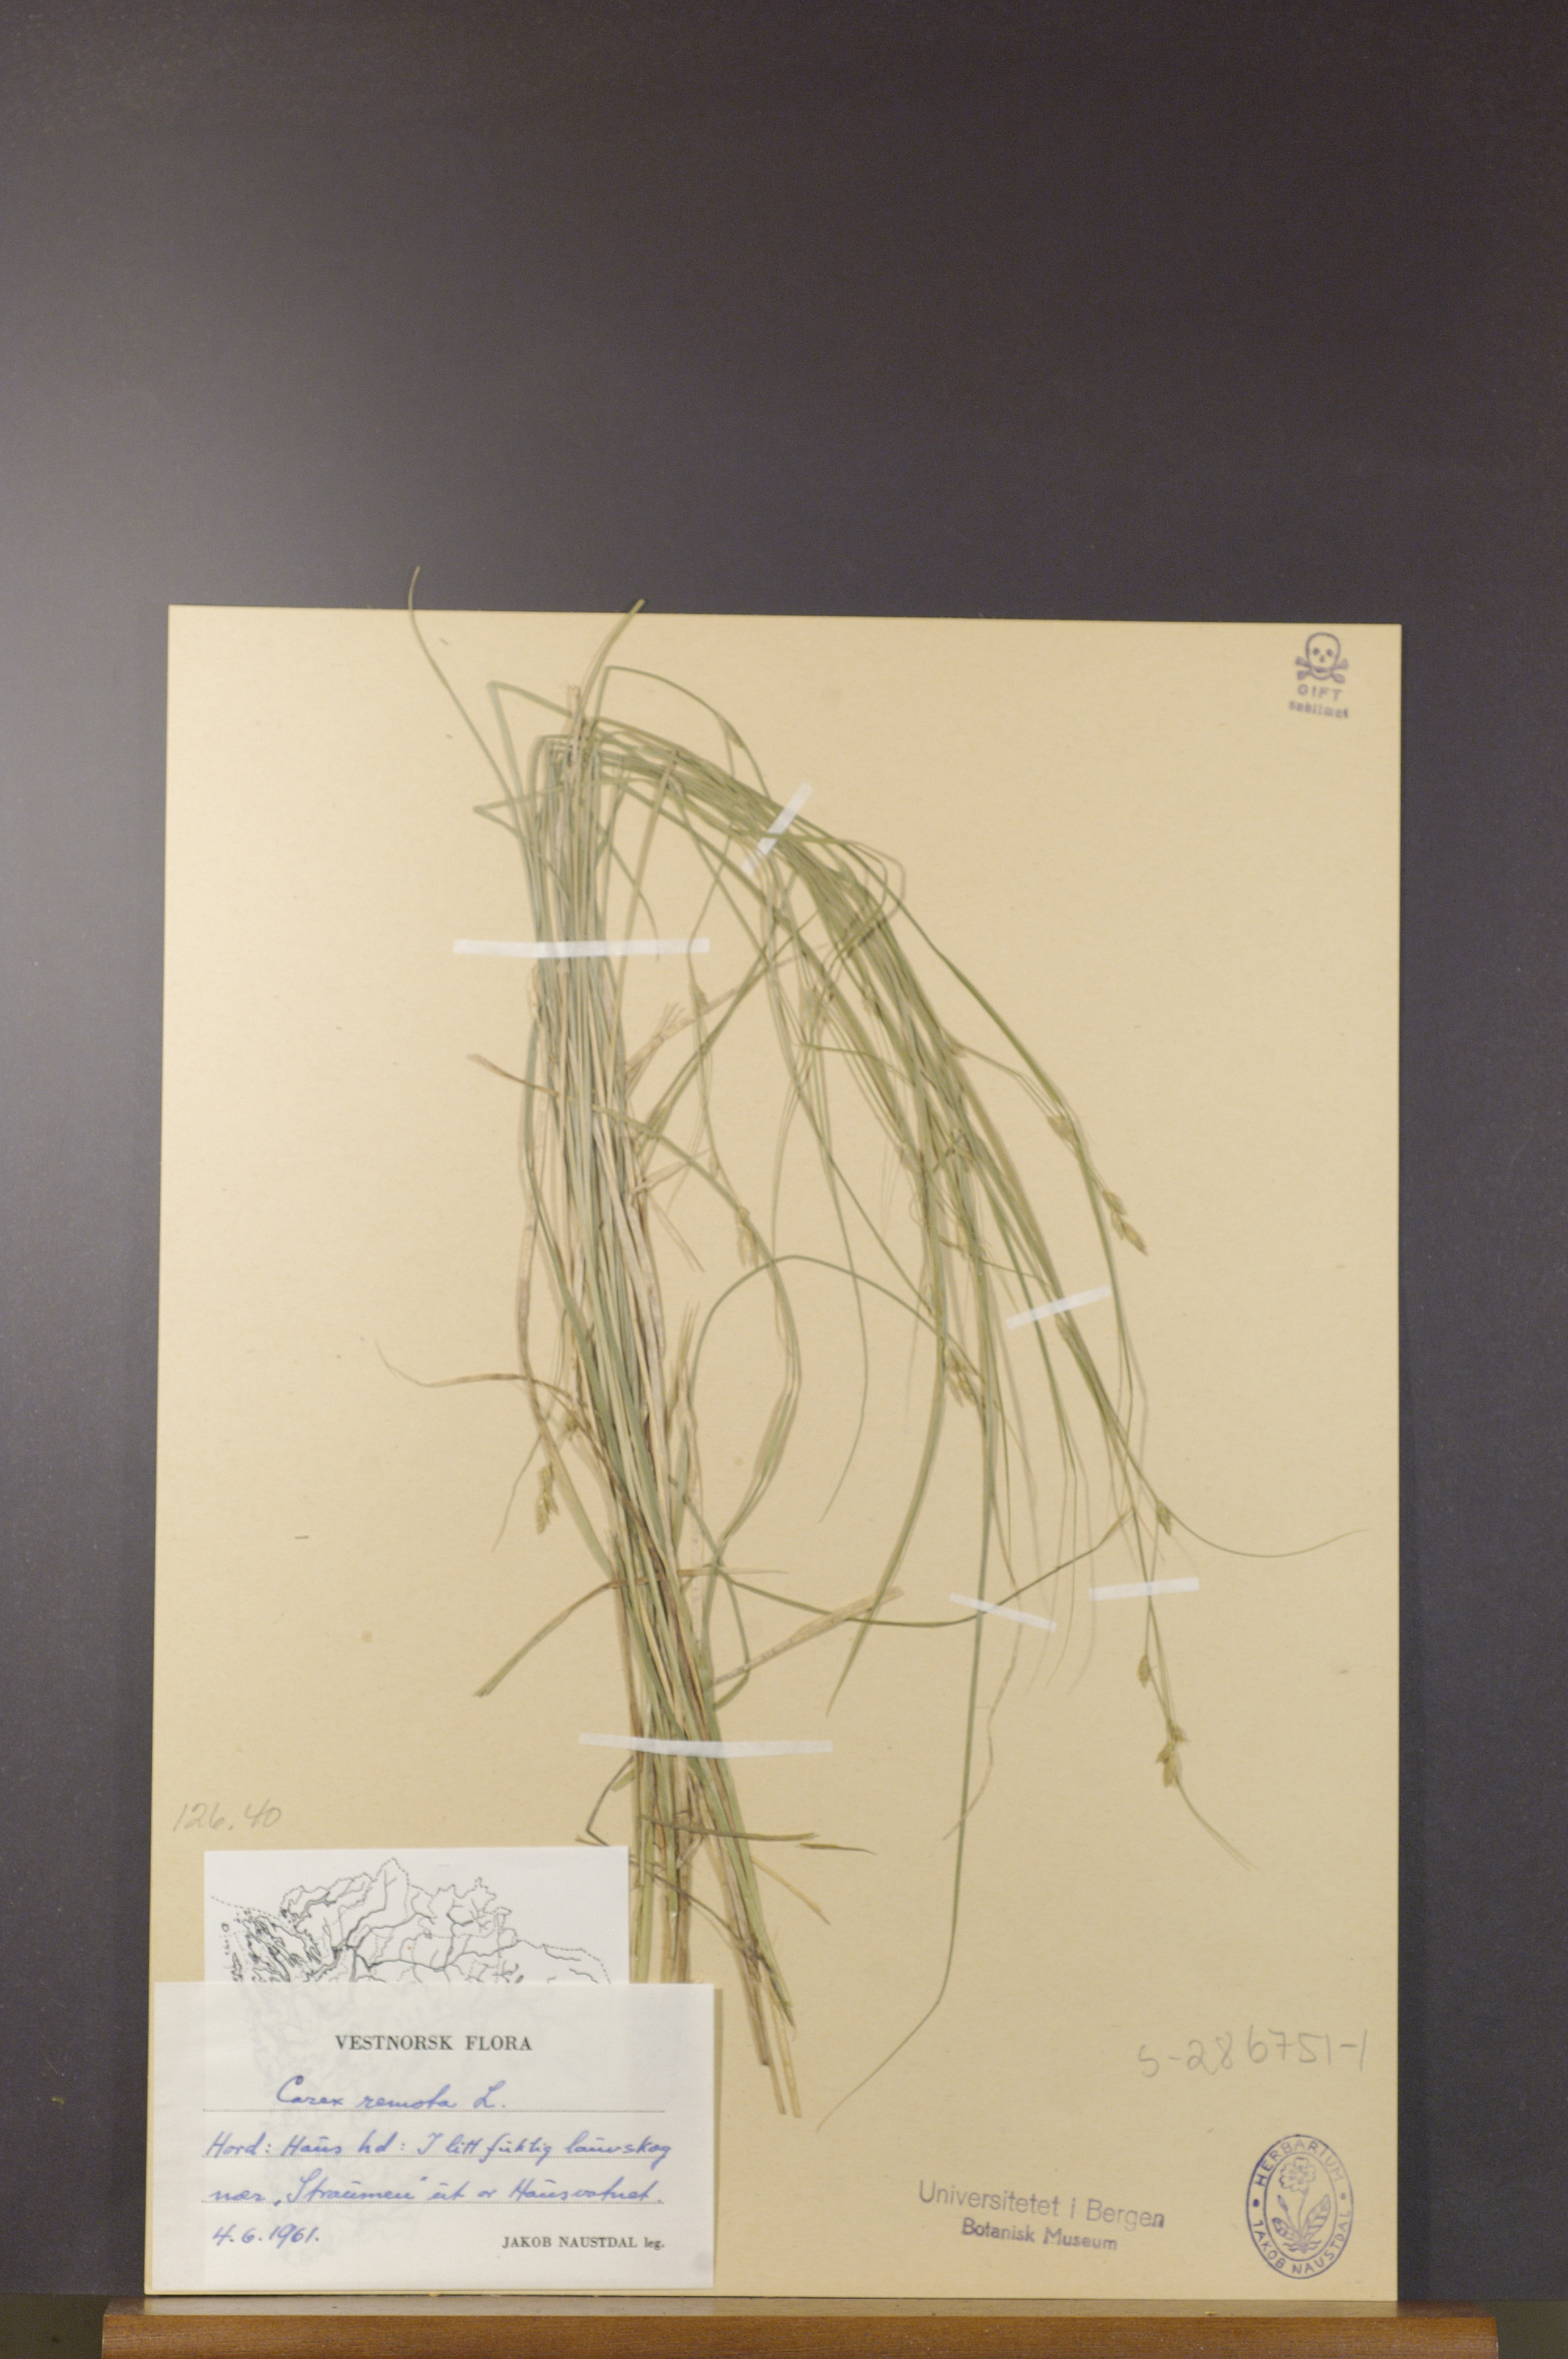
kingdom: Plantae
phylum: Tracheophyta
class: Liliopsida
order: Poales
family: Cyperaceae
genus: Carex
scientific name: Carex remota
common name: Remote sedge
